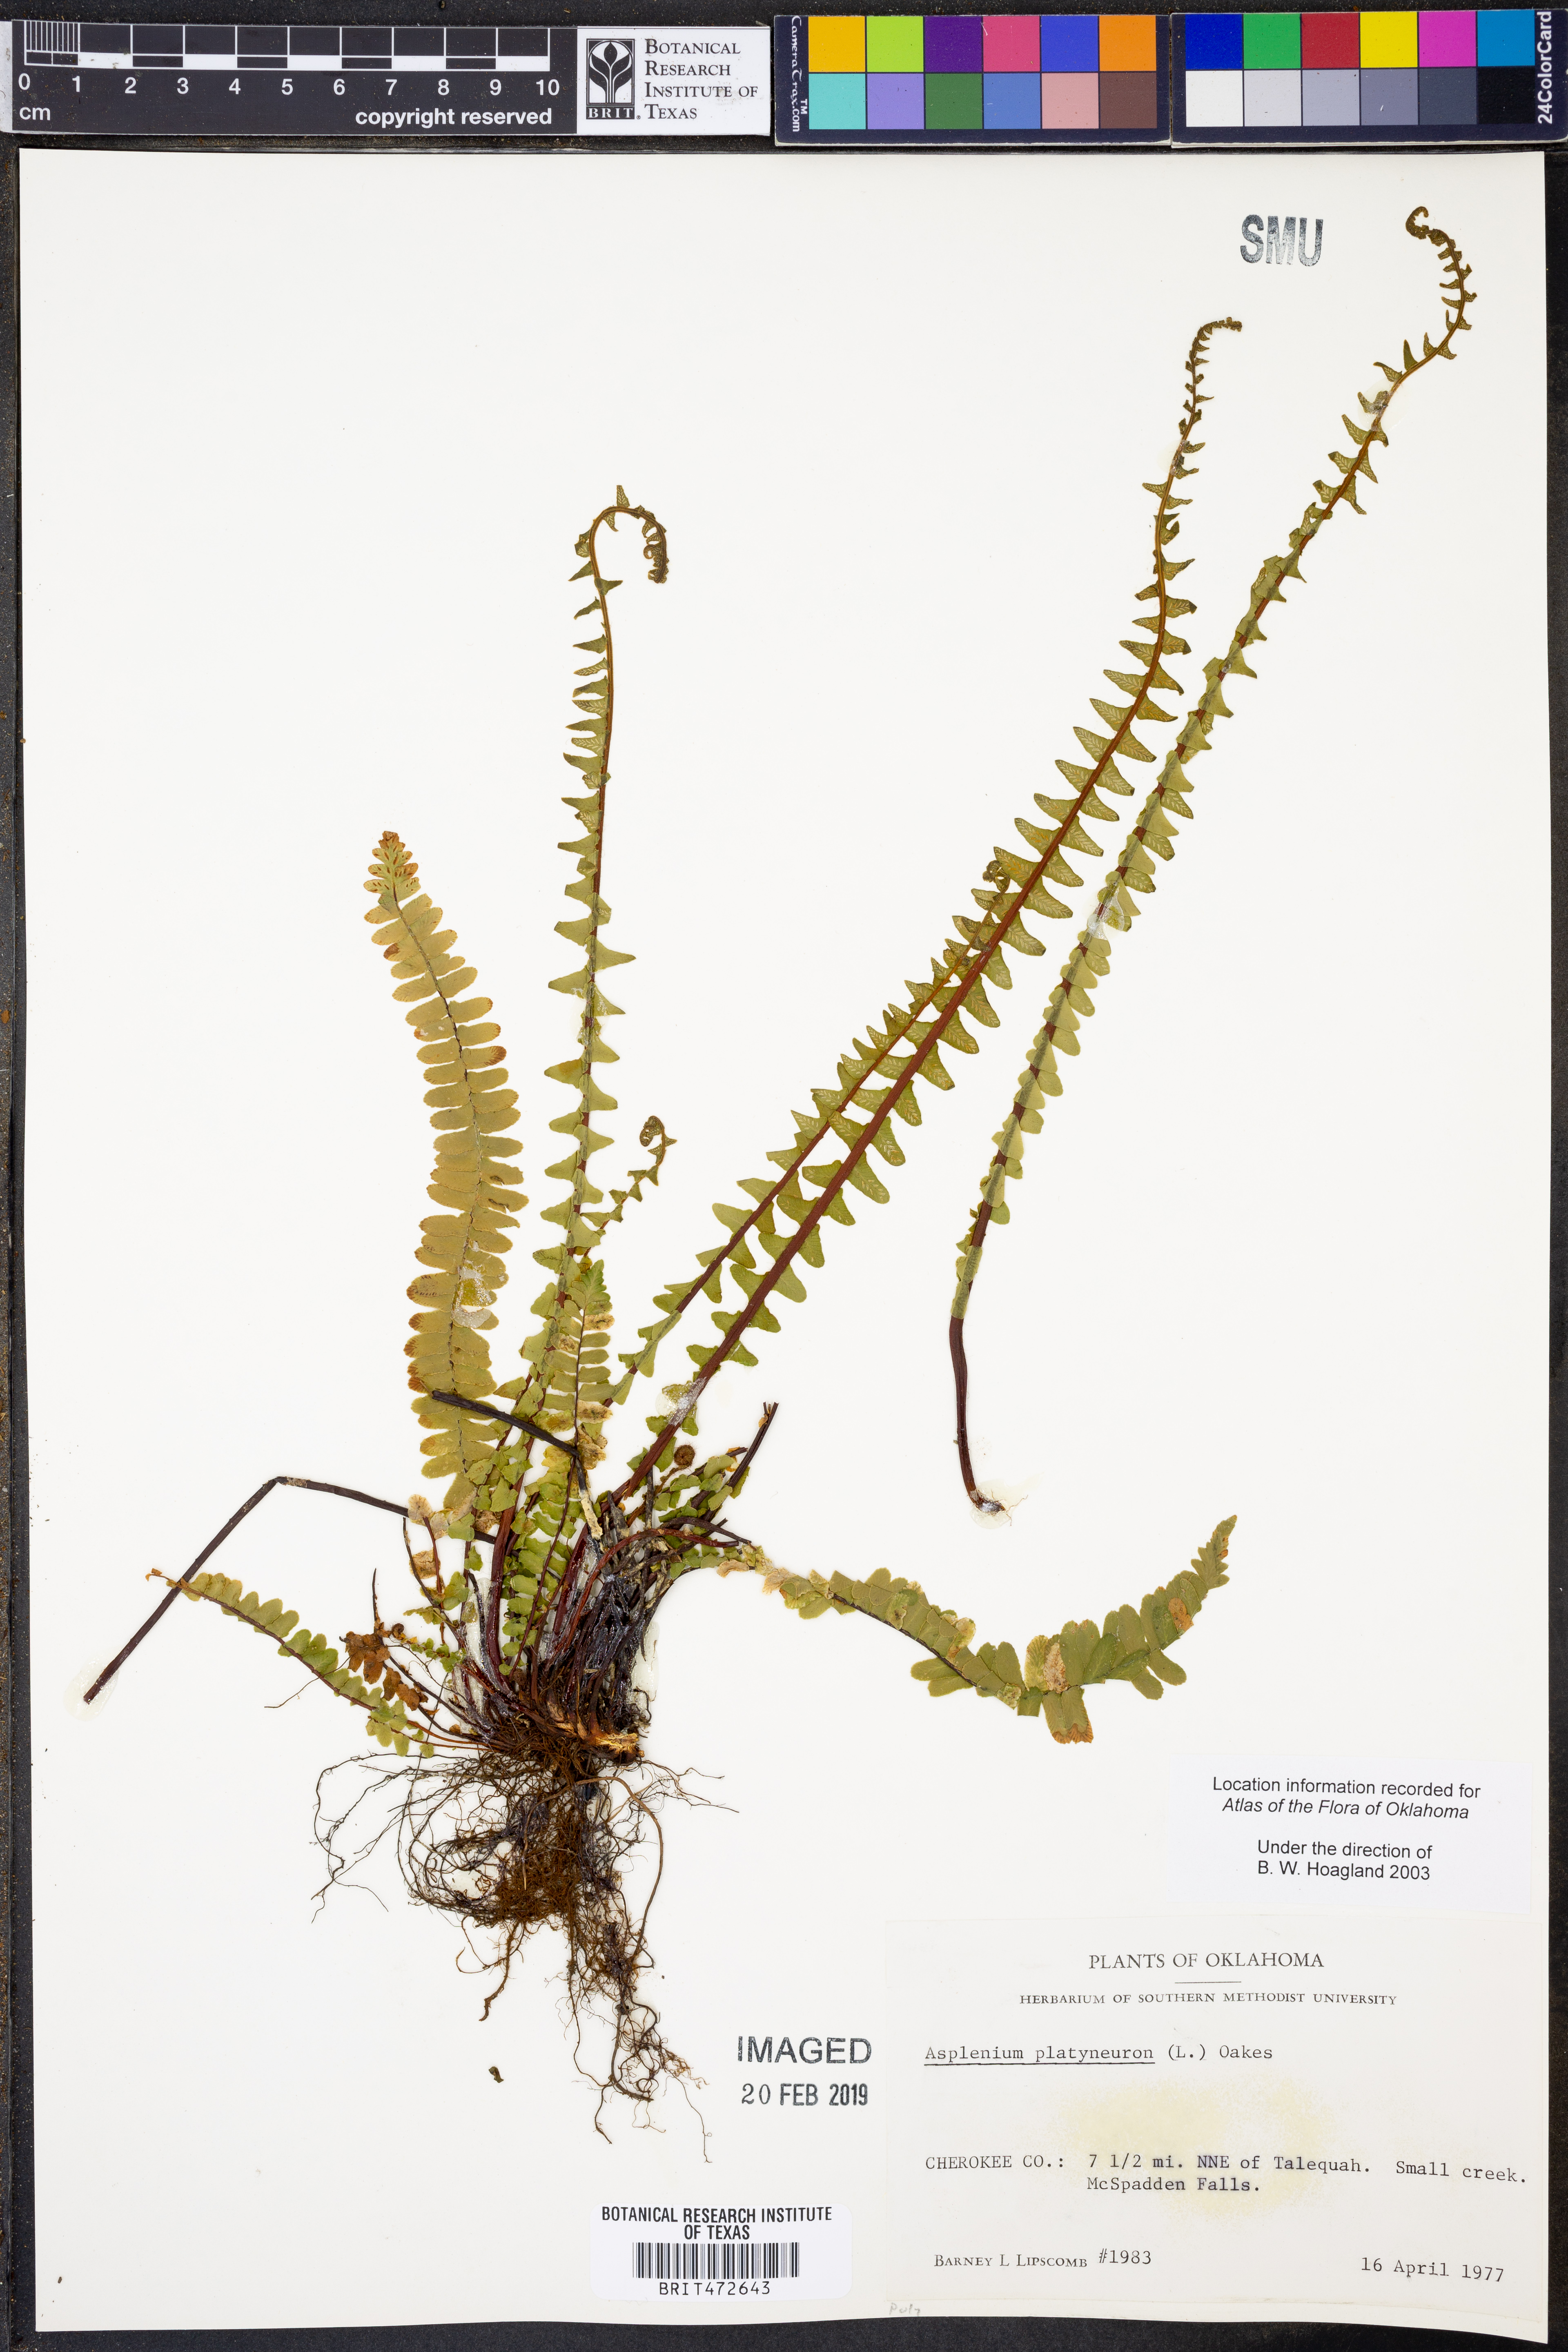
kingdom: Plantae
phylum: Tracheophyta
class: Polypodiopsida
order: Polypodiales
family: Aspleniaceae
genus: Asplenium
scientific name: Asplenium platyneuron
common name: Ebony spleenwort
